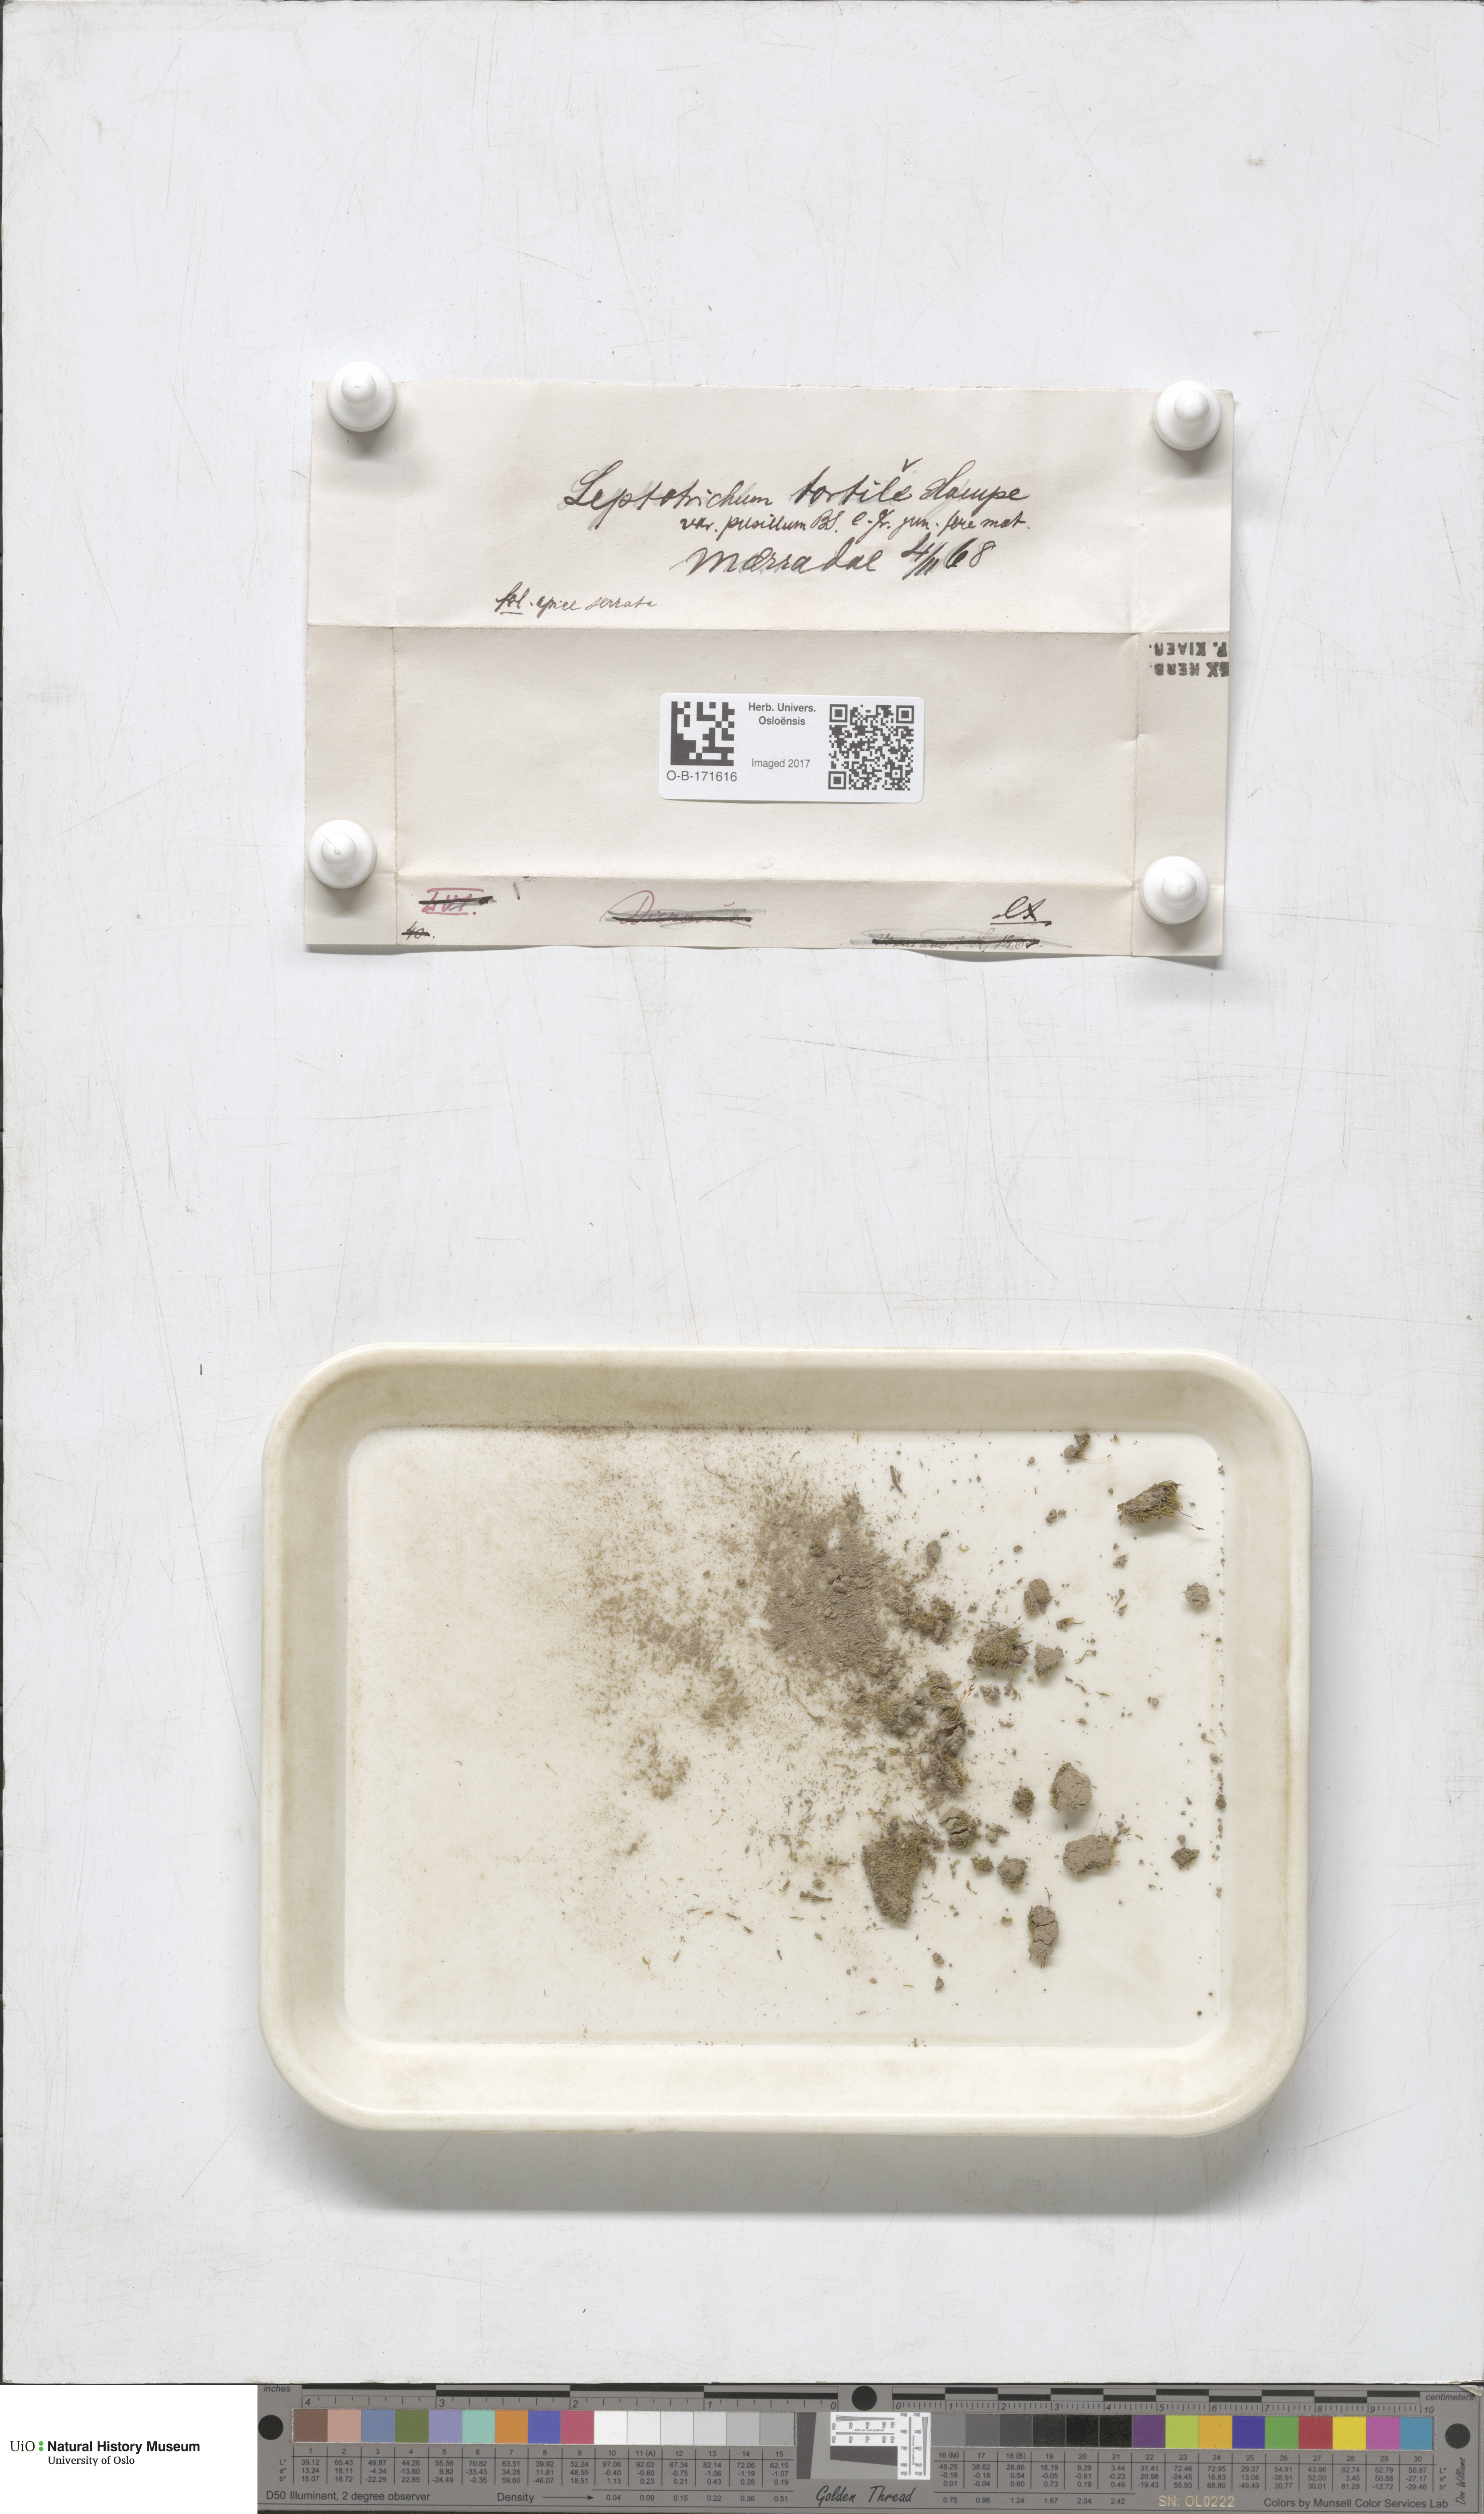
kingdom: Plantae
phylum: Bryophyta
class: Bryopsida
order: Dicranales
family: Ditrichaceae
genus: Ditrichum
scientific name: Ditrichum pusillum
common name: Brown cow-hair moss
